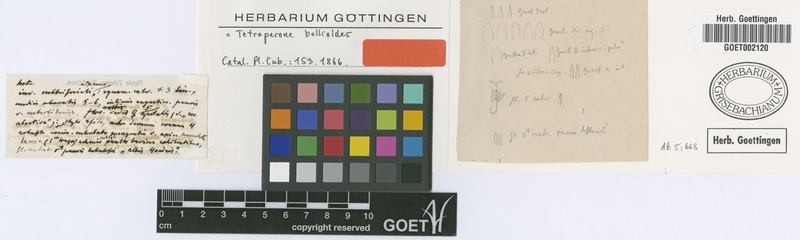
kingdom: Plantae
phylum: Tracheophyta
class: Magnoliopsida
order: Asterales
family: Asteraceae
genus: Tetraperone
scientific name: Tetraperone bellioides
